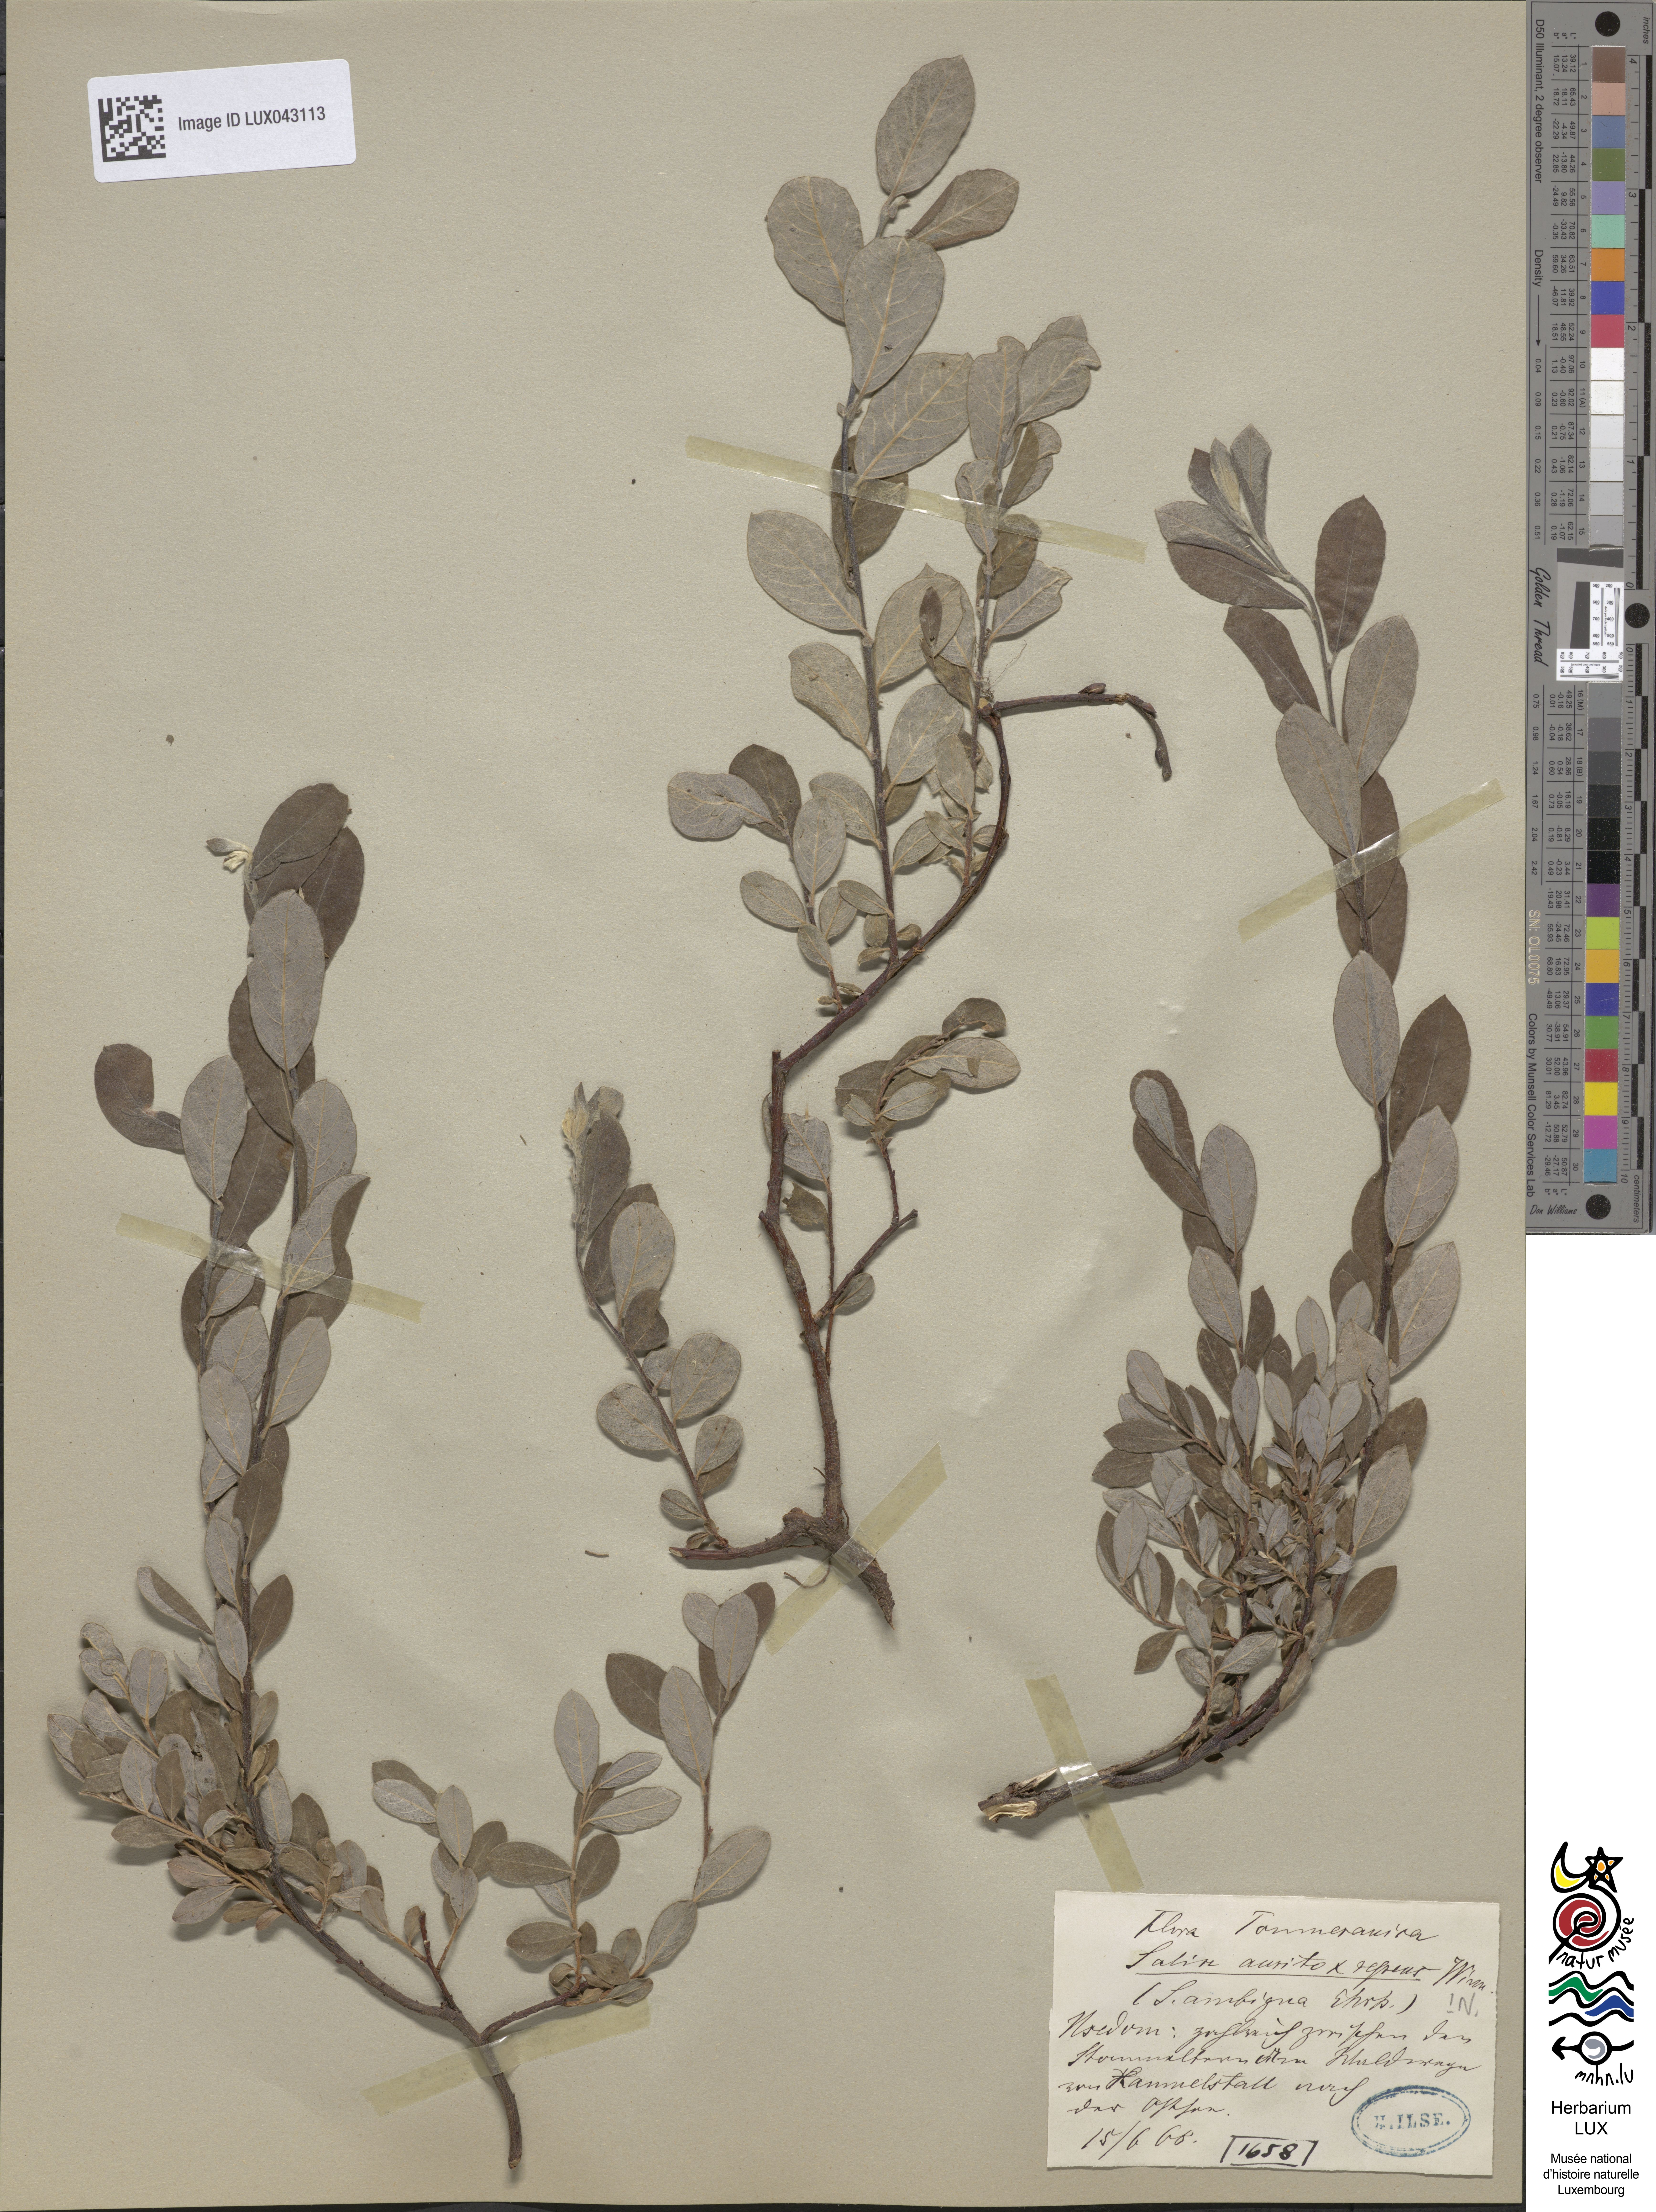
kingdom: Plantae
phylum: Tracheophyta
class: Magnoliopsida
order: Malpighiales
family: Salicaceae
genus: Salix
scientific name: Salix
